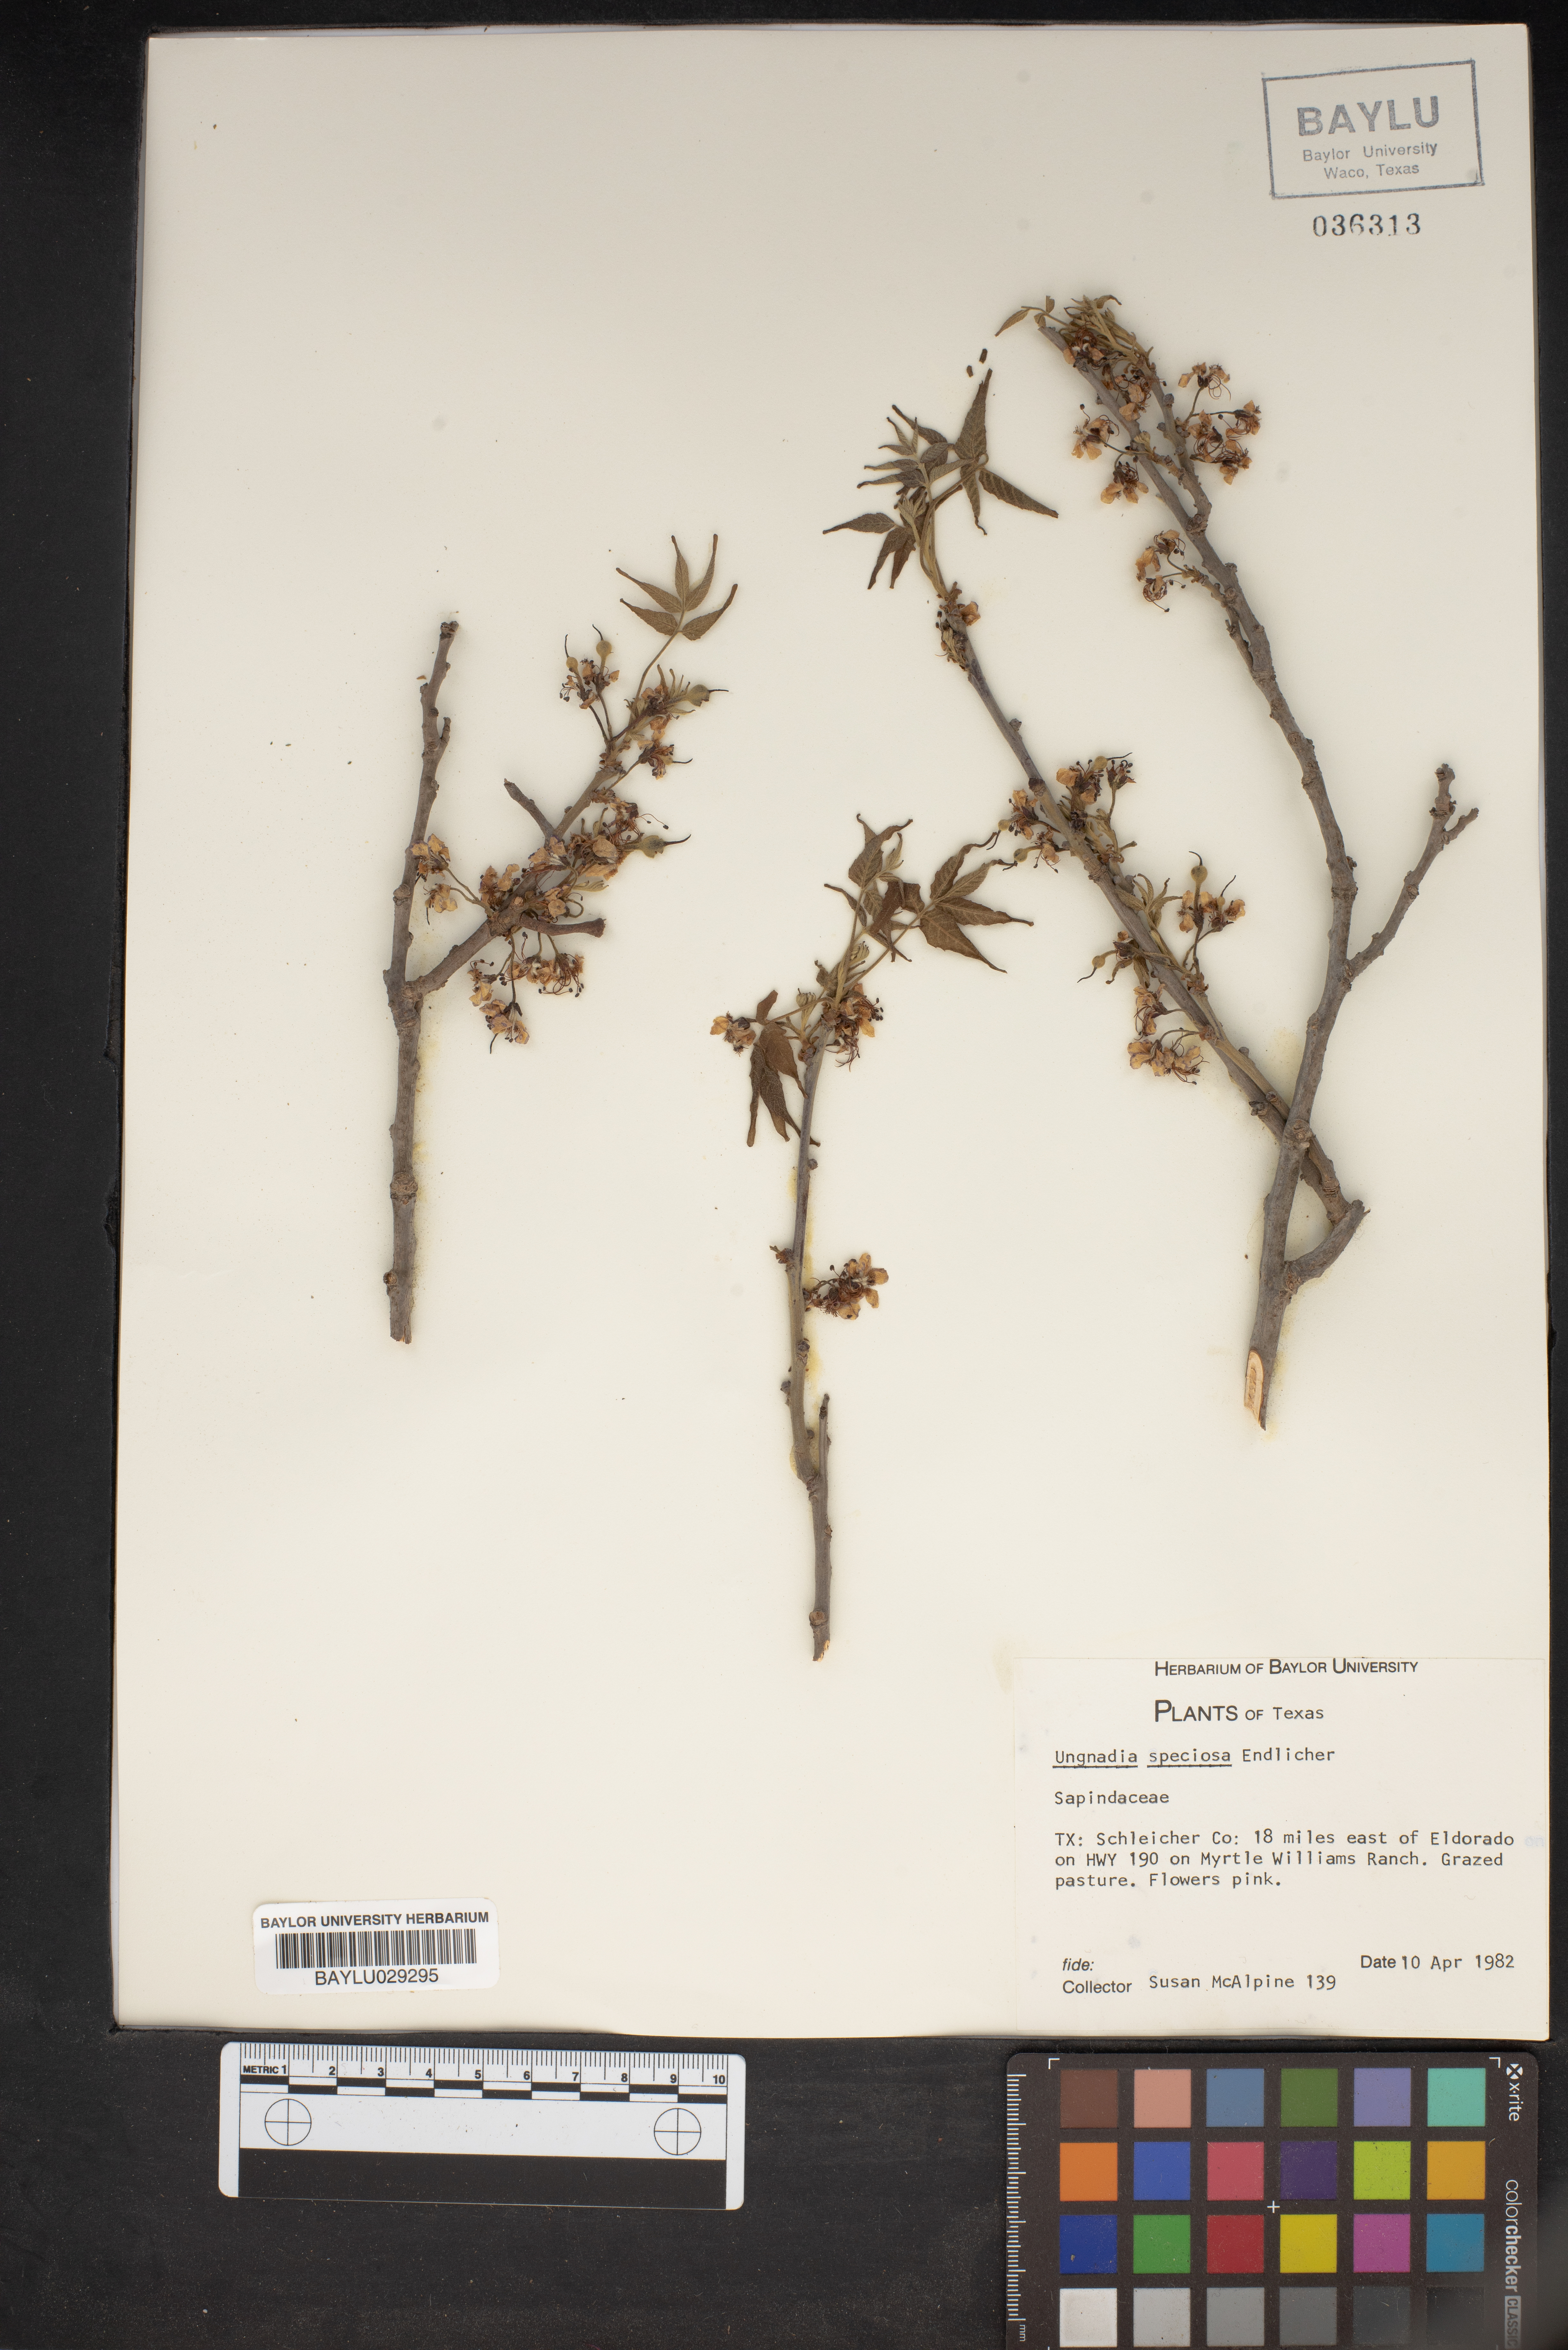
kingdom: Plantae
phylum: Tracheophyta
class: Magnoliopsida
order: Sapindales
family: Sapindaceae
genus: Ungnadia
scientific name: Ungnadia speciosa
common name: Texas-buckeye
